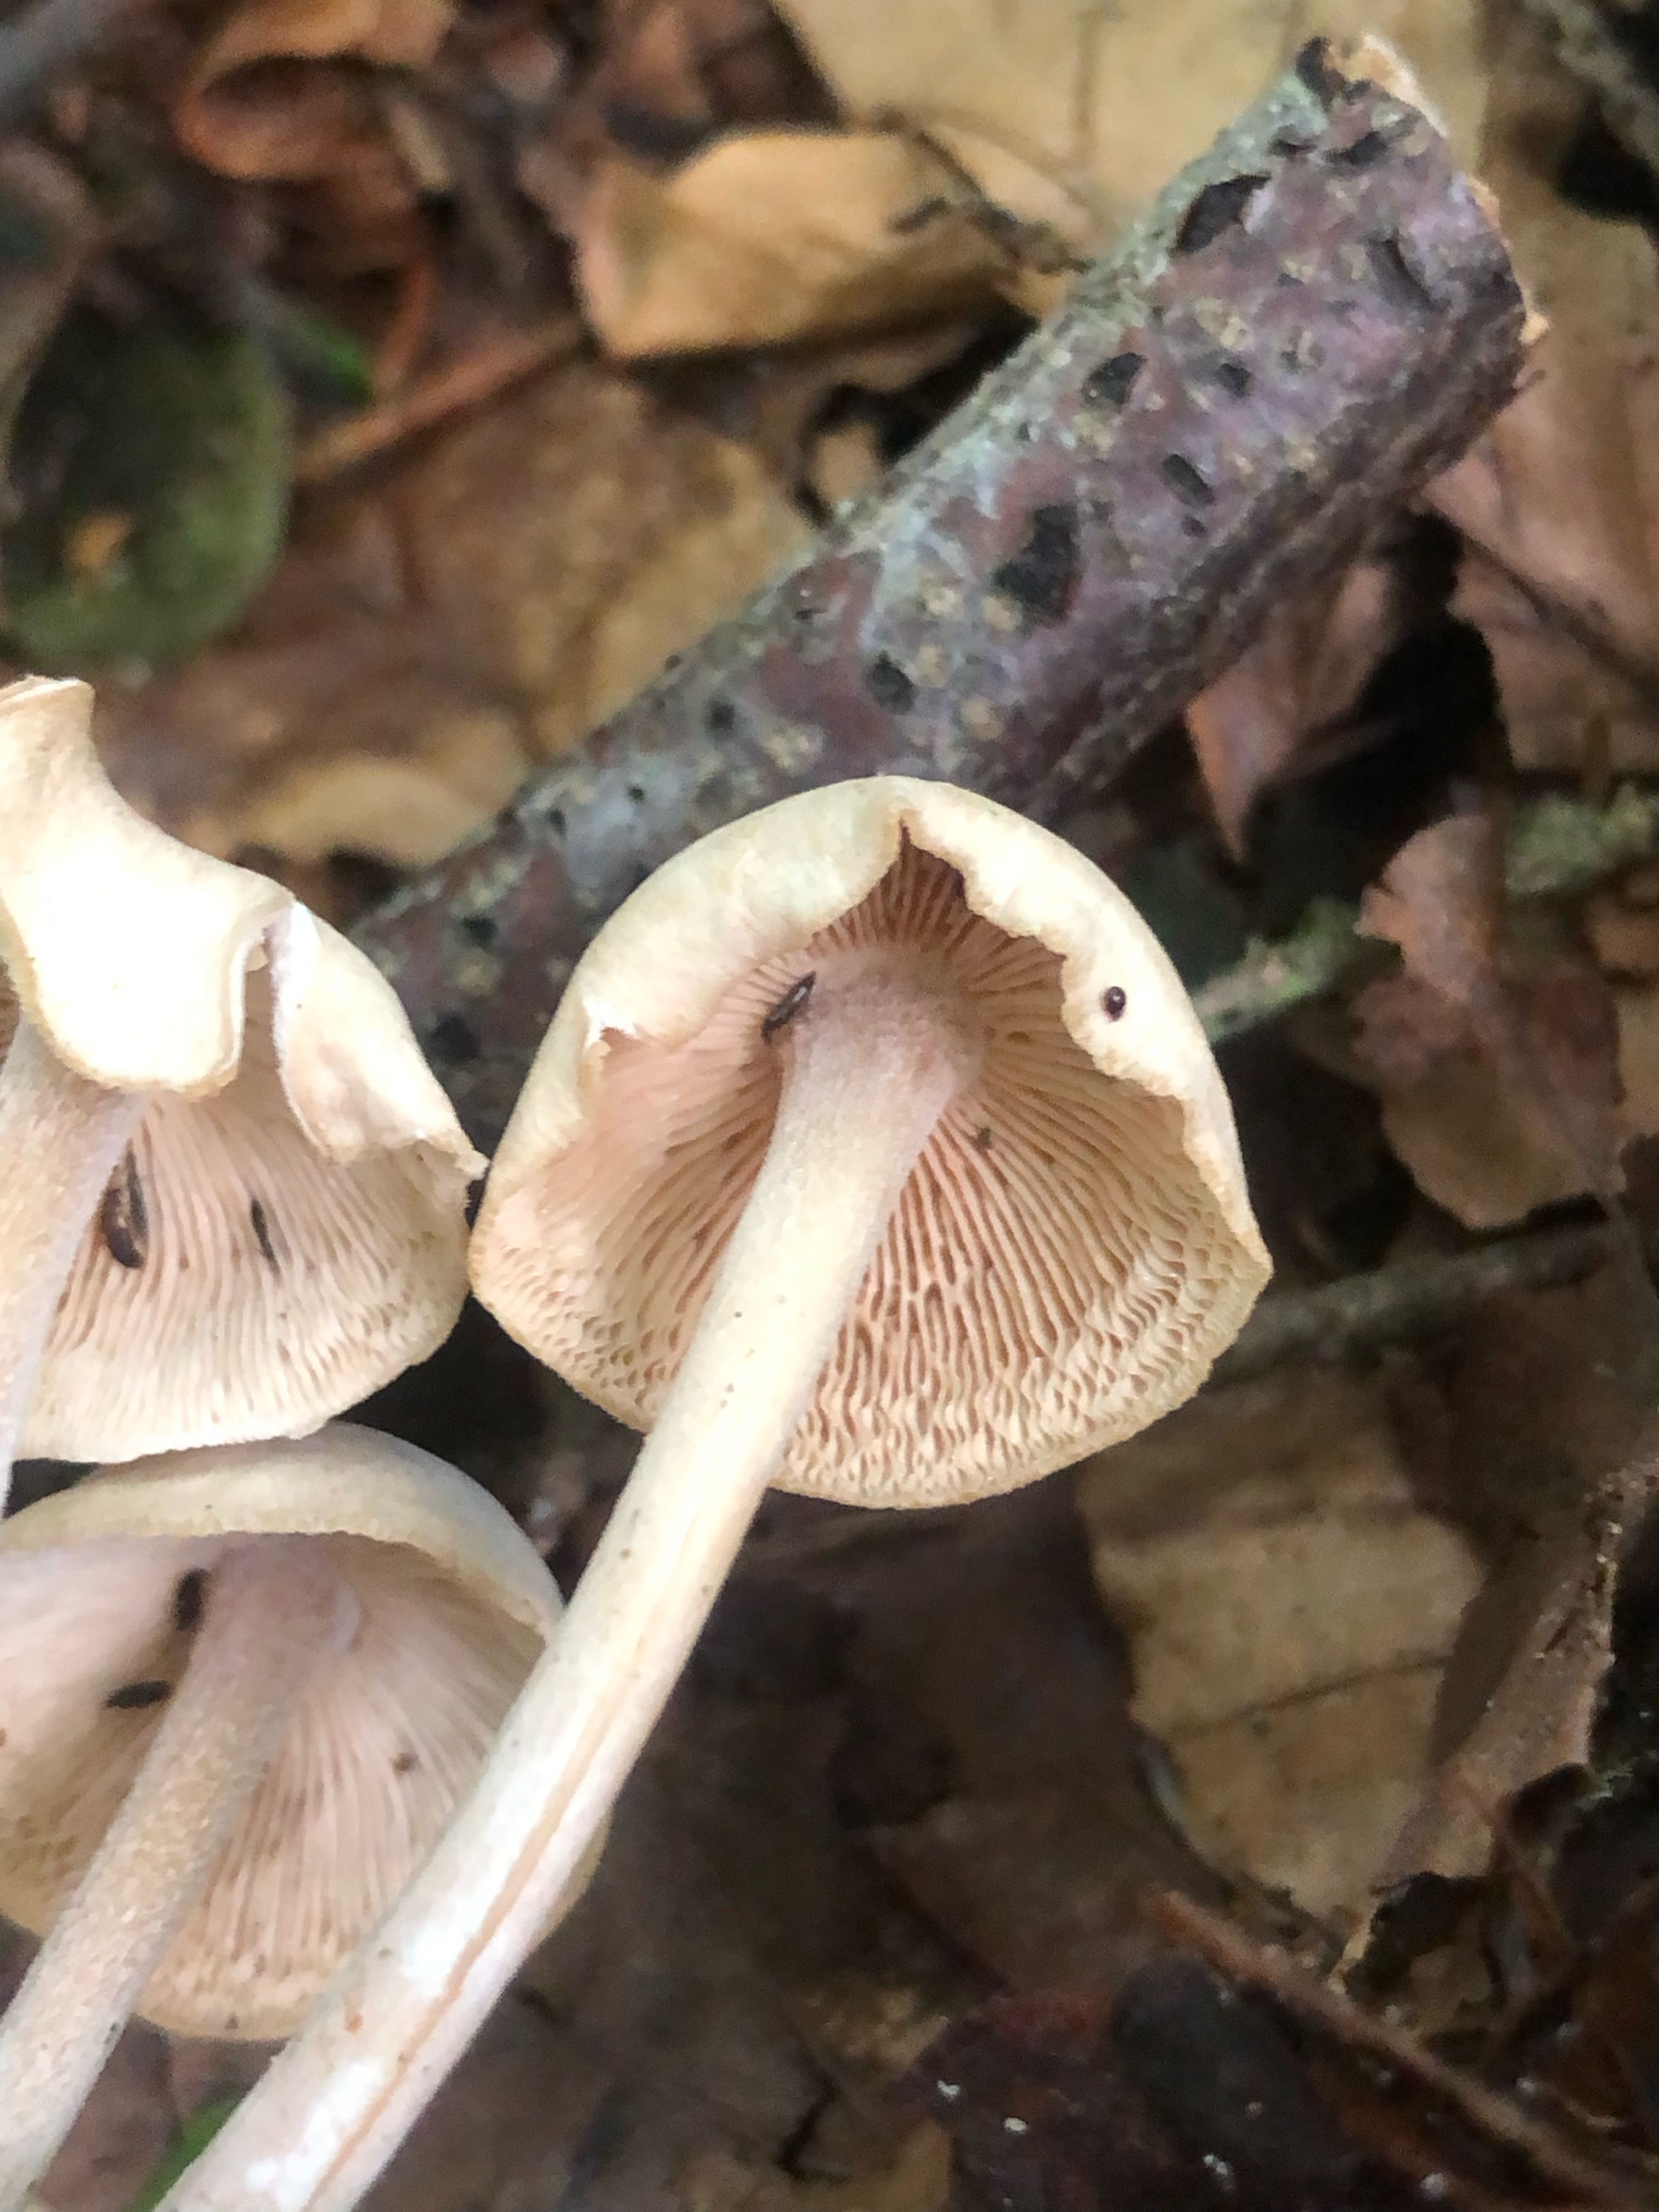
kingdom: Fungi
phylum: Basidiomycota
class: Agaricomycetes
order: Agaricales
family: Omphalotaceae
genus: Collybiopsis
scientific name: Collybiopsis confluens
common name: knippe-fladhat
